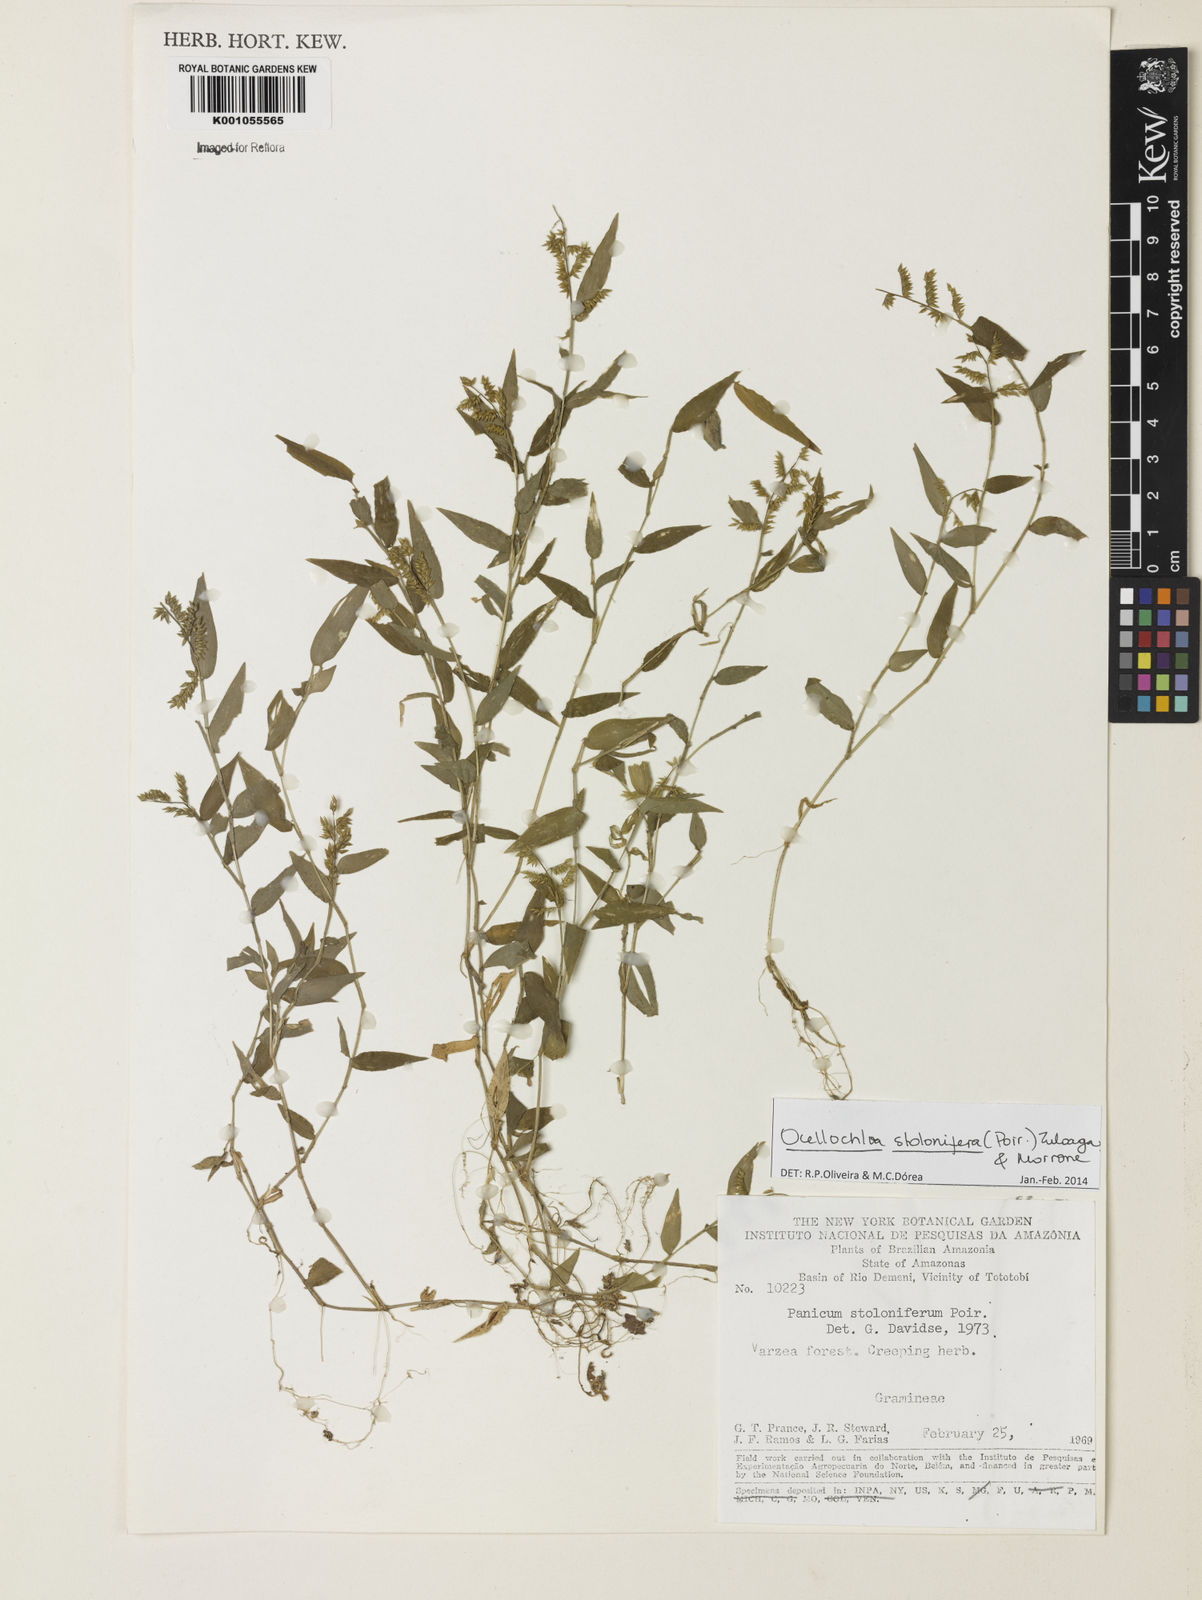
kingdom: Plantae
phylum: Tracheophyta
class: Liliopsida
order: Poales
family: Poaceae
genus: Ocellochloa
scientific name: Ocellochloa stolonifera
